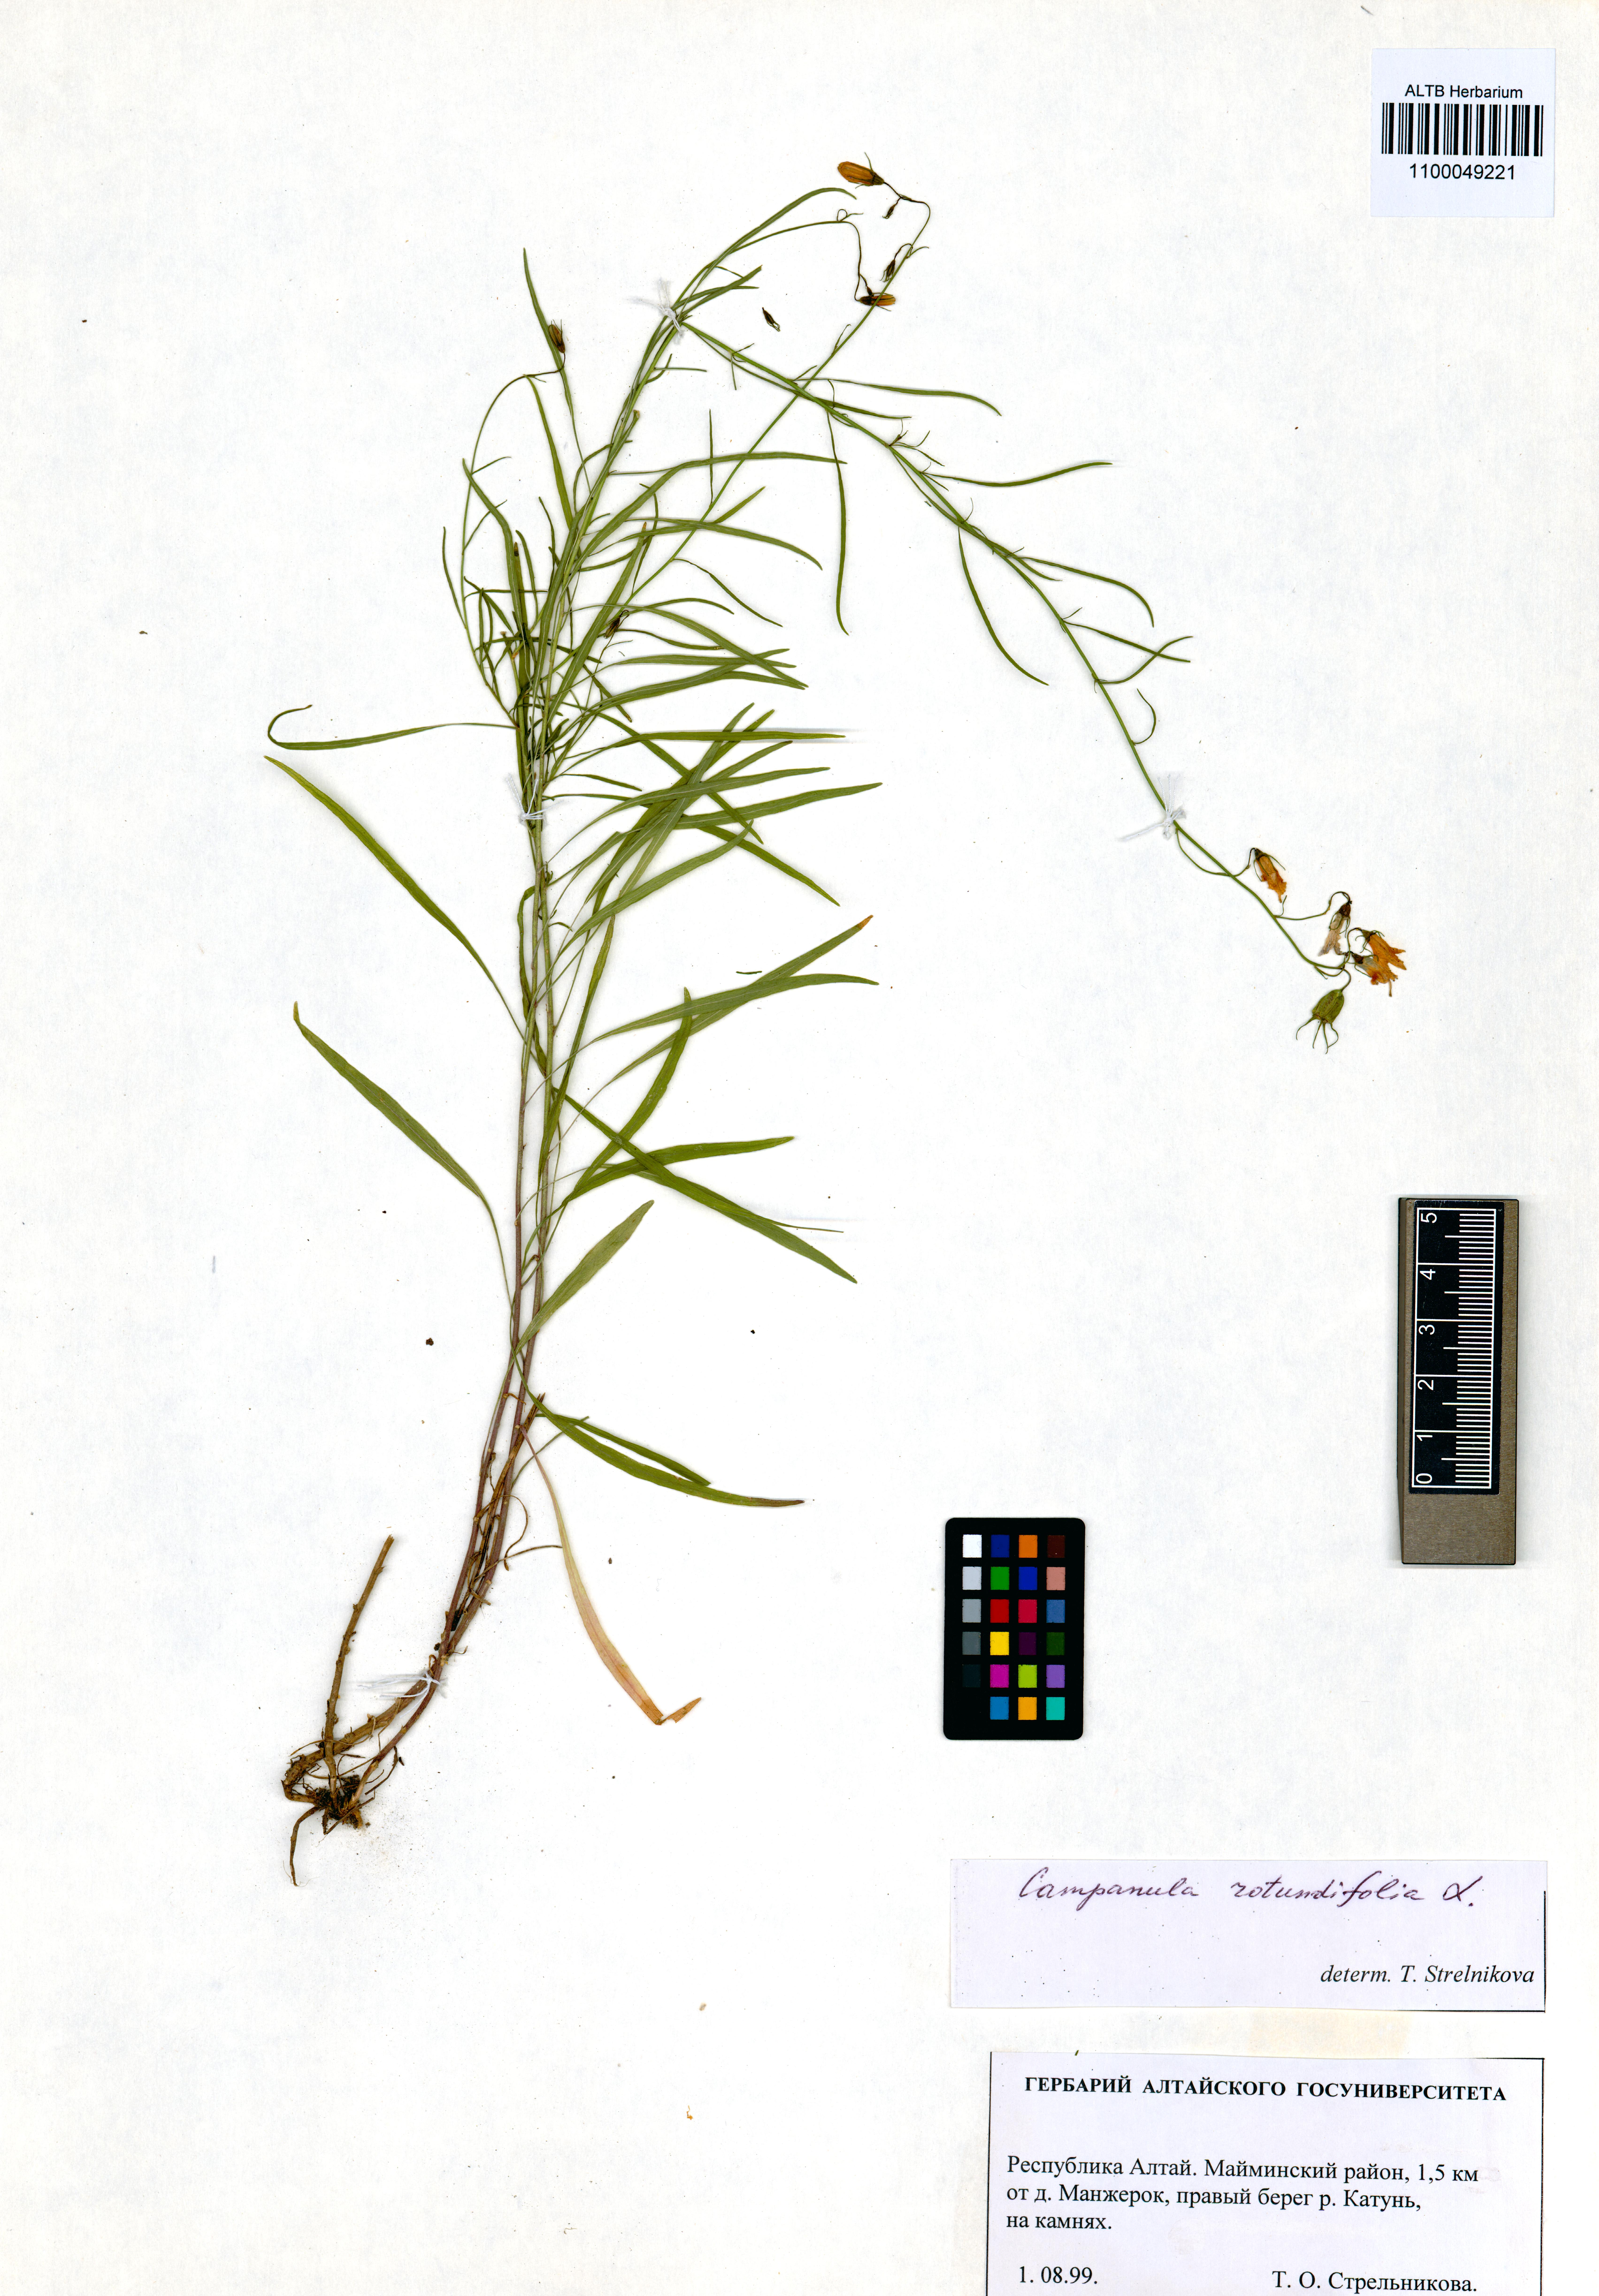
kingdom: Plantae
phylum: Tracheophyta
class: Magnoliopsida
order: Asterales
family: Campanulaceae
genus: Campanula
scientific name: Campanula rotundifolia
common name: Harebell
